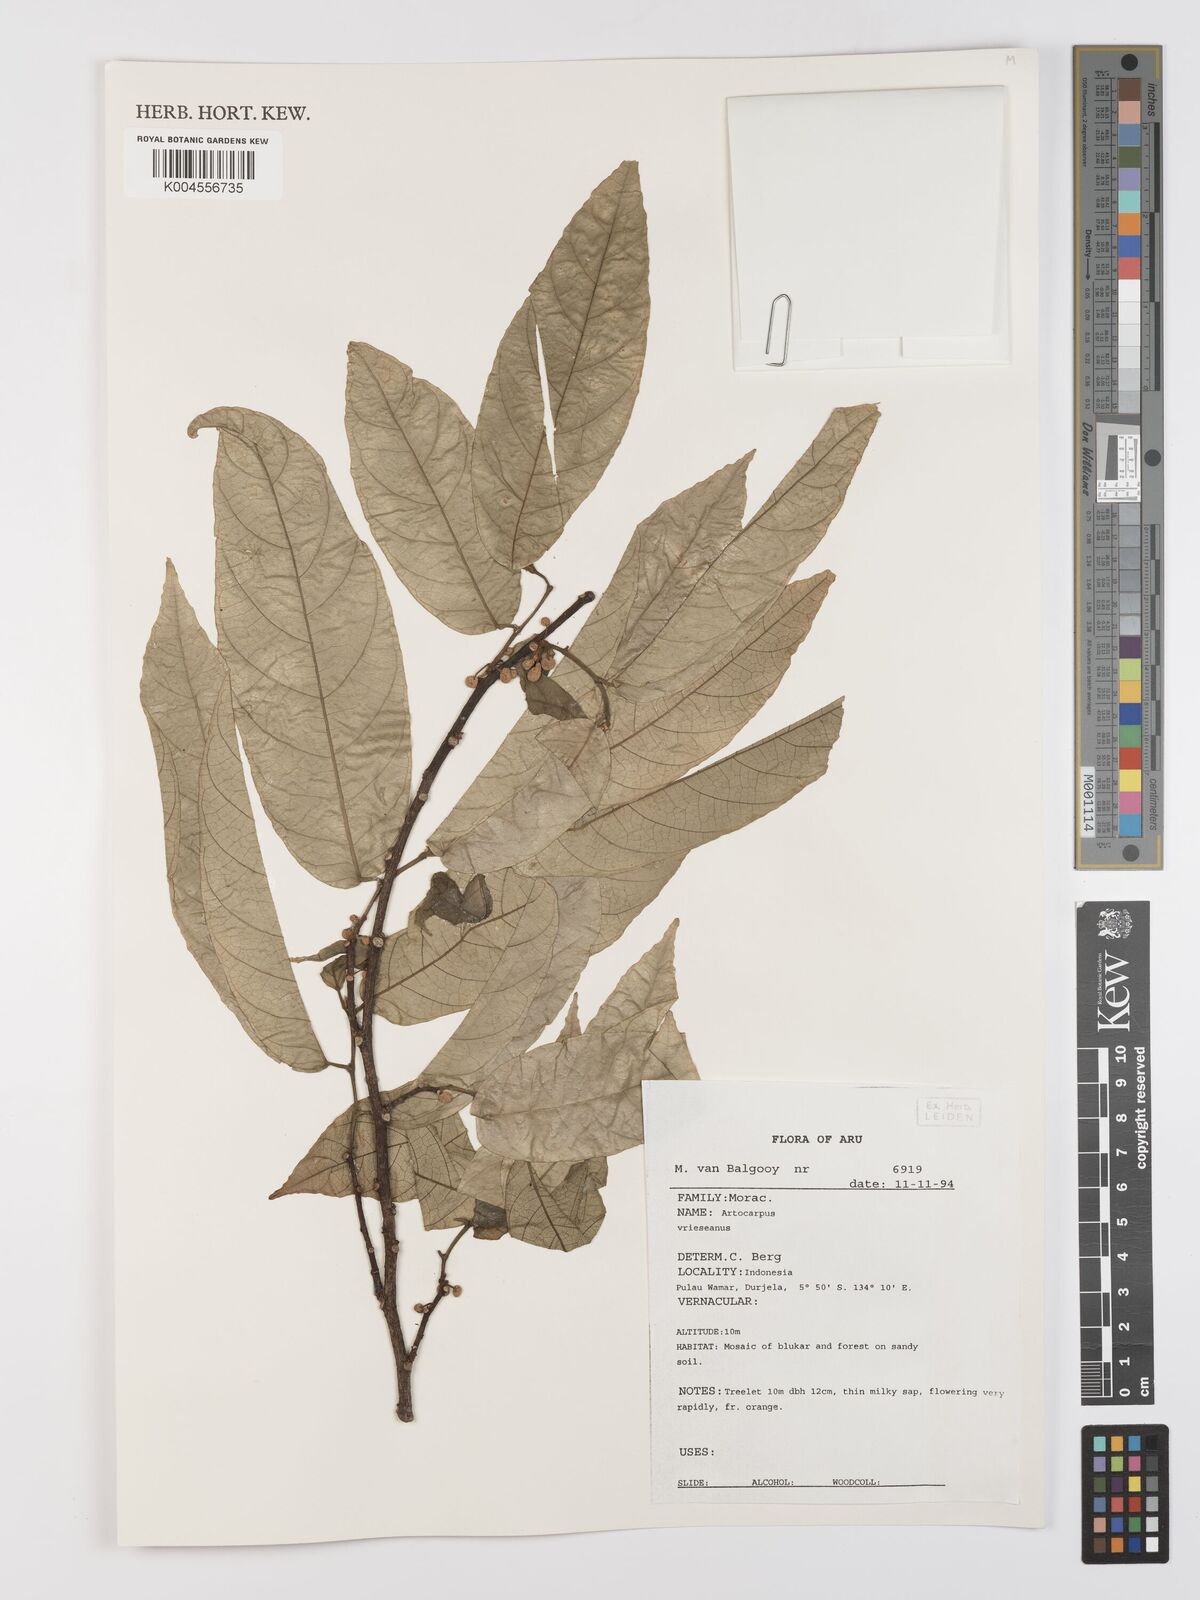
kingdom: Plantae
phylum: Tracheophyta
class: Magnoliopsida
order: Rosales
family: Moraceae
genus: Artocarpus
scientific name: Artocarpus vrieseanus
